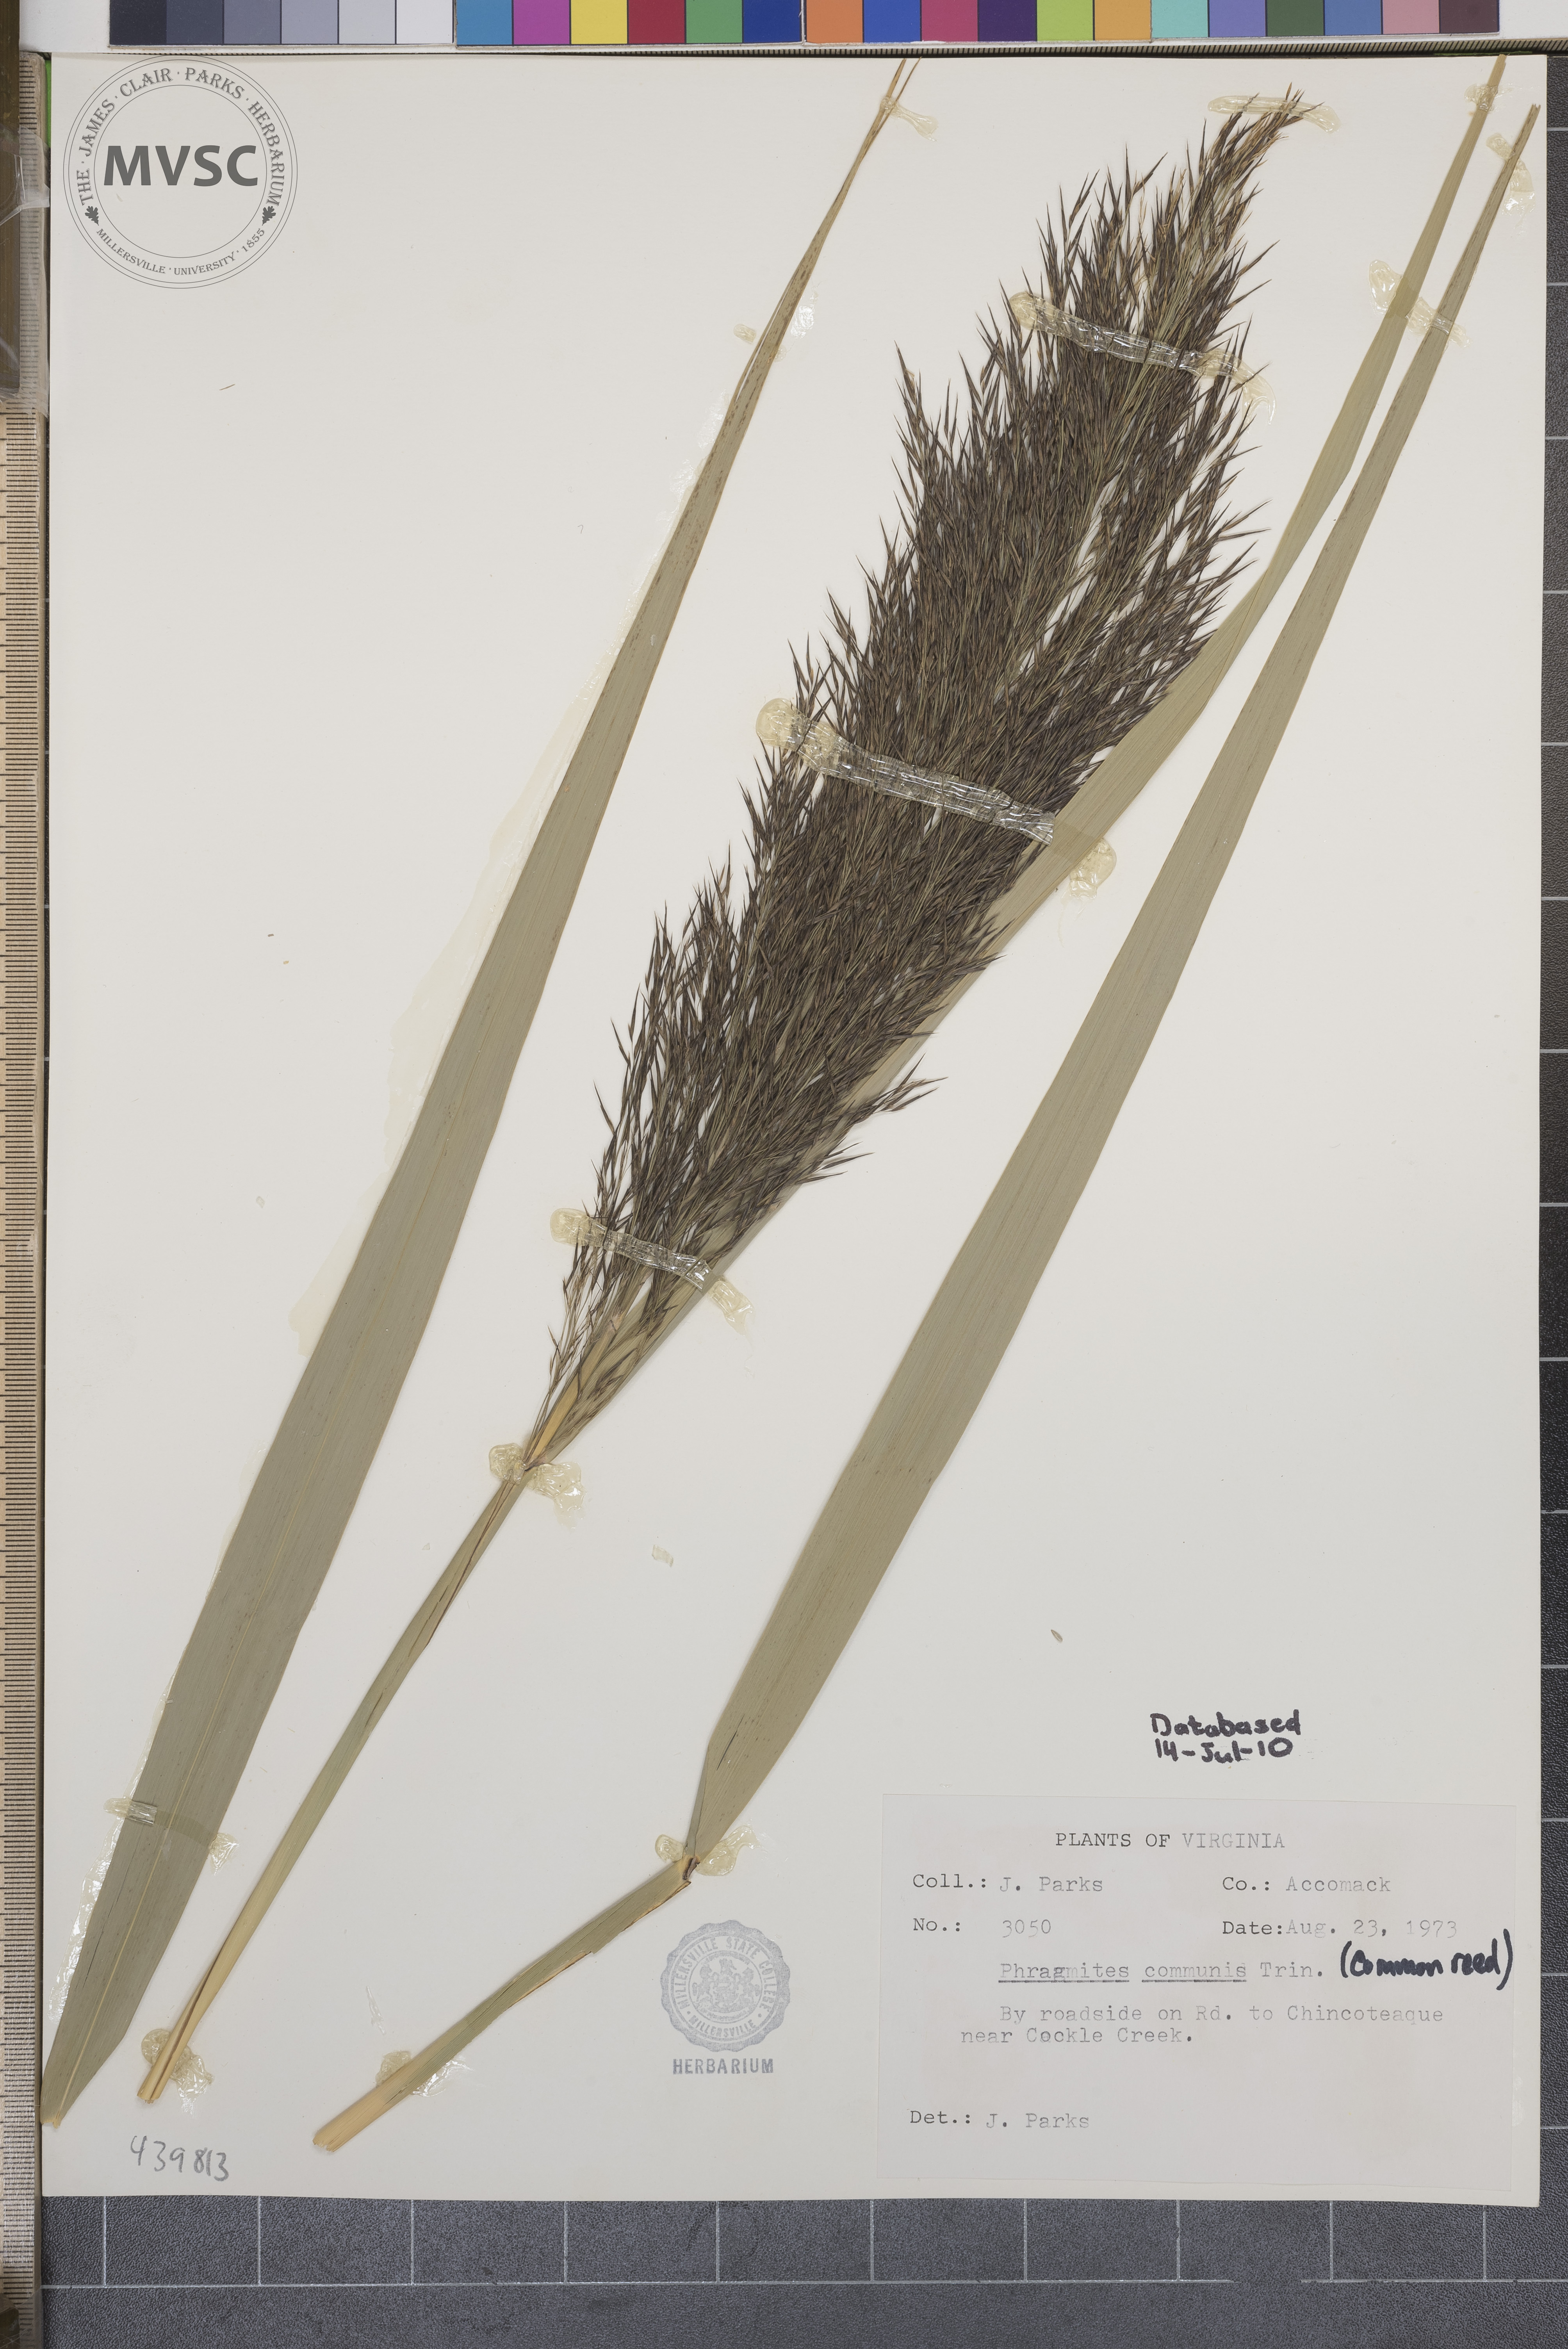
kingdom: Plantae
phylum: Tracheophyta
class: Liliopsida
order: Poales
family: Poaceae
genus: Phragmites
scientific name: Phragmites australis
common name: Common reed
